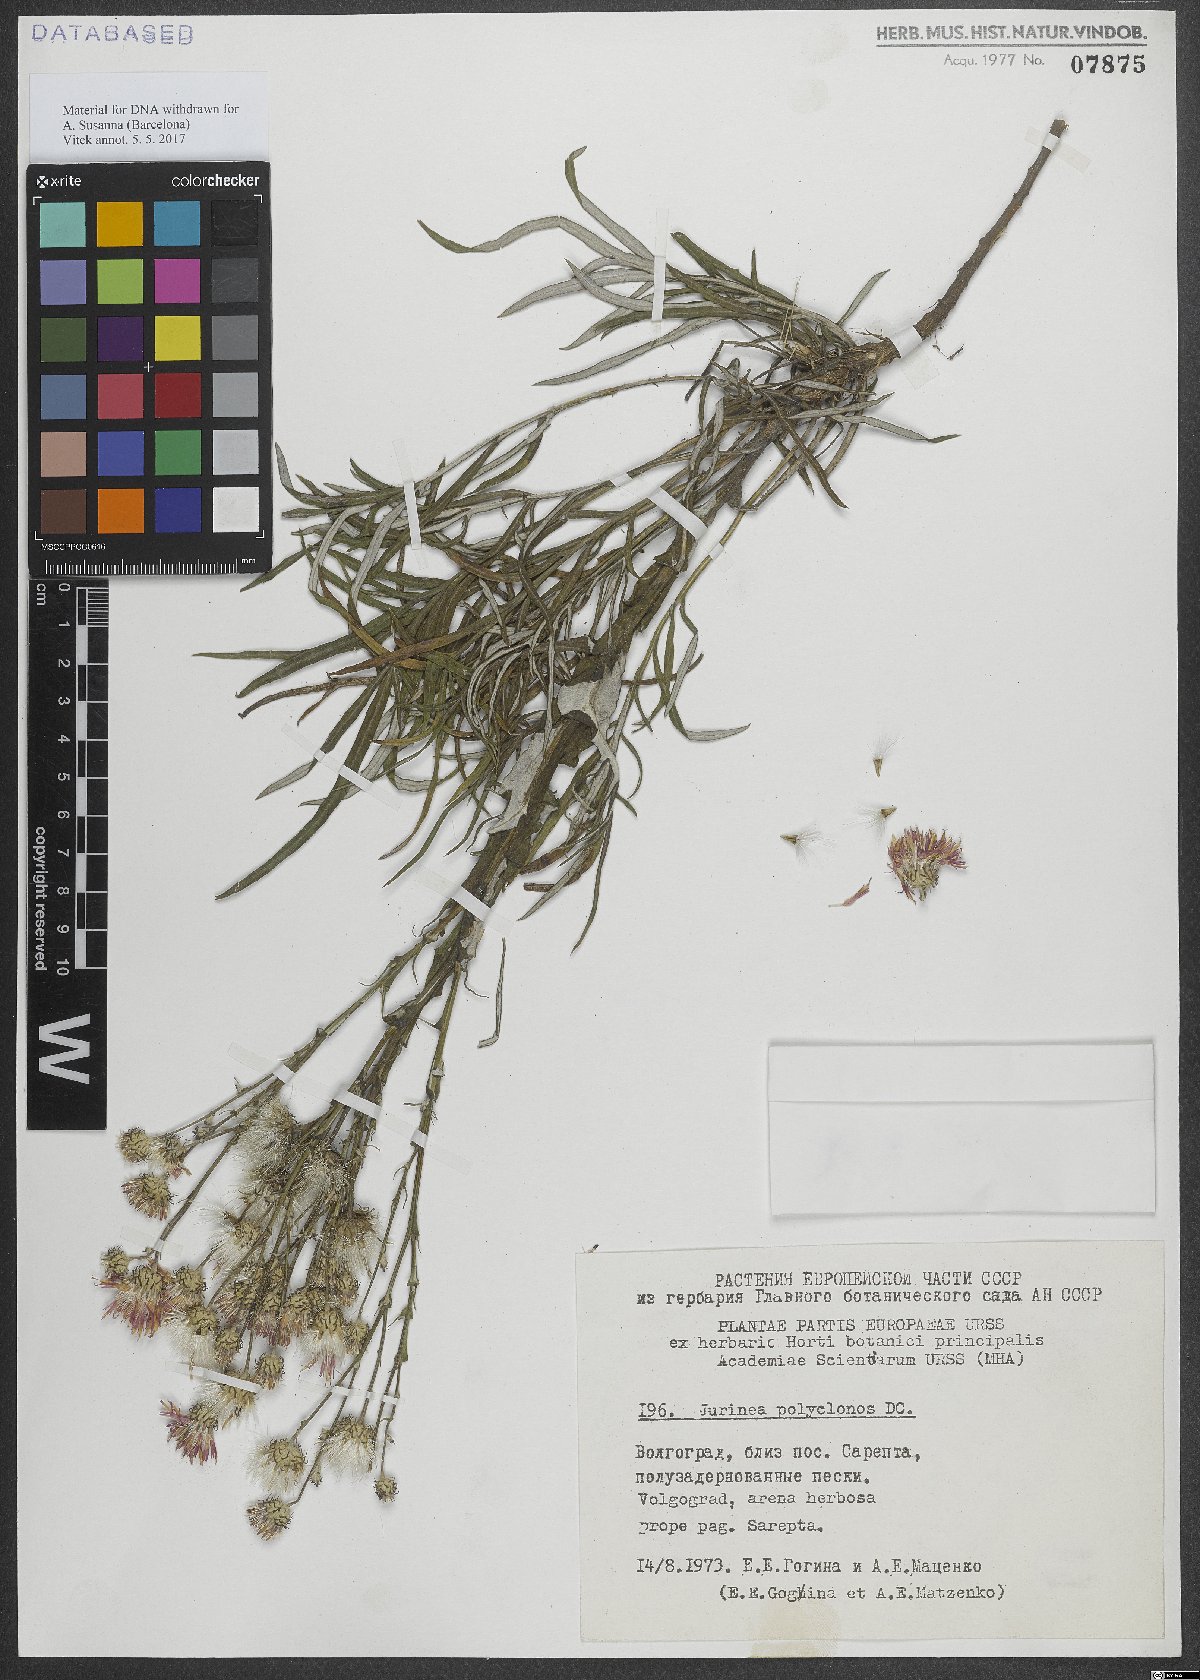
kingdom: Plantae
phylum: Tracheophyta
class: Magnoliopsida
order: Asterales
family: Asteraceae
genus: Jurinea
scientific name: Jurinea polyclonos
